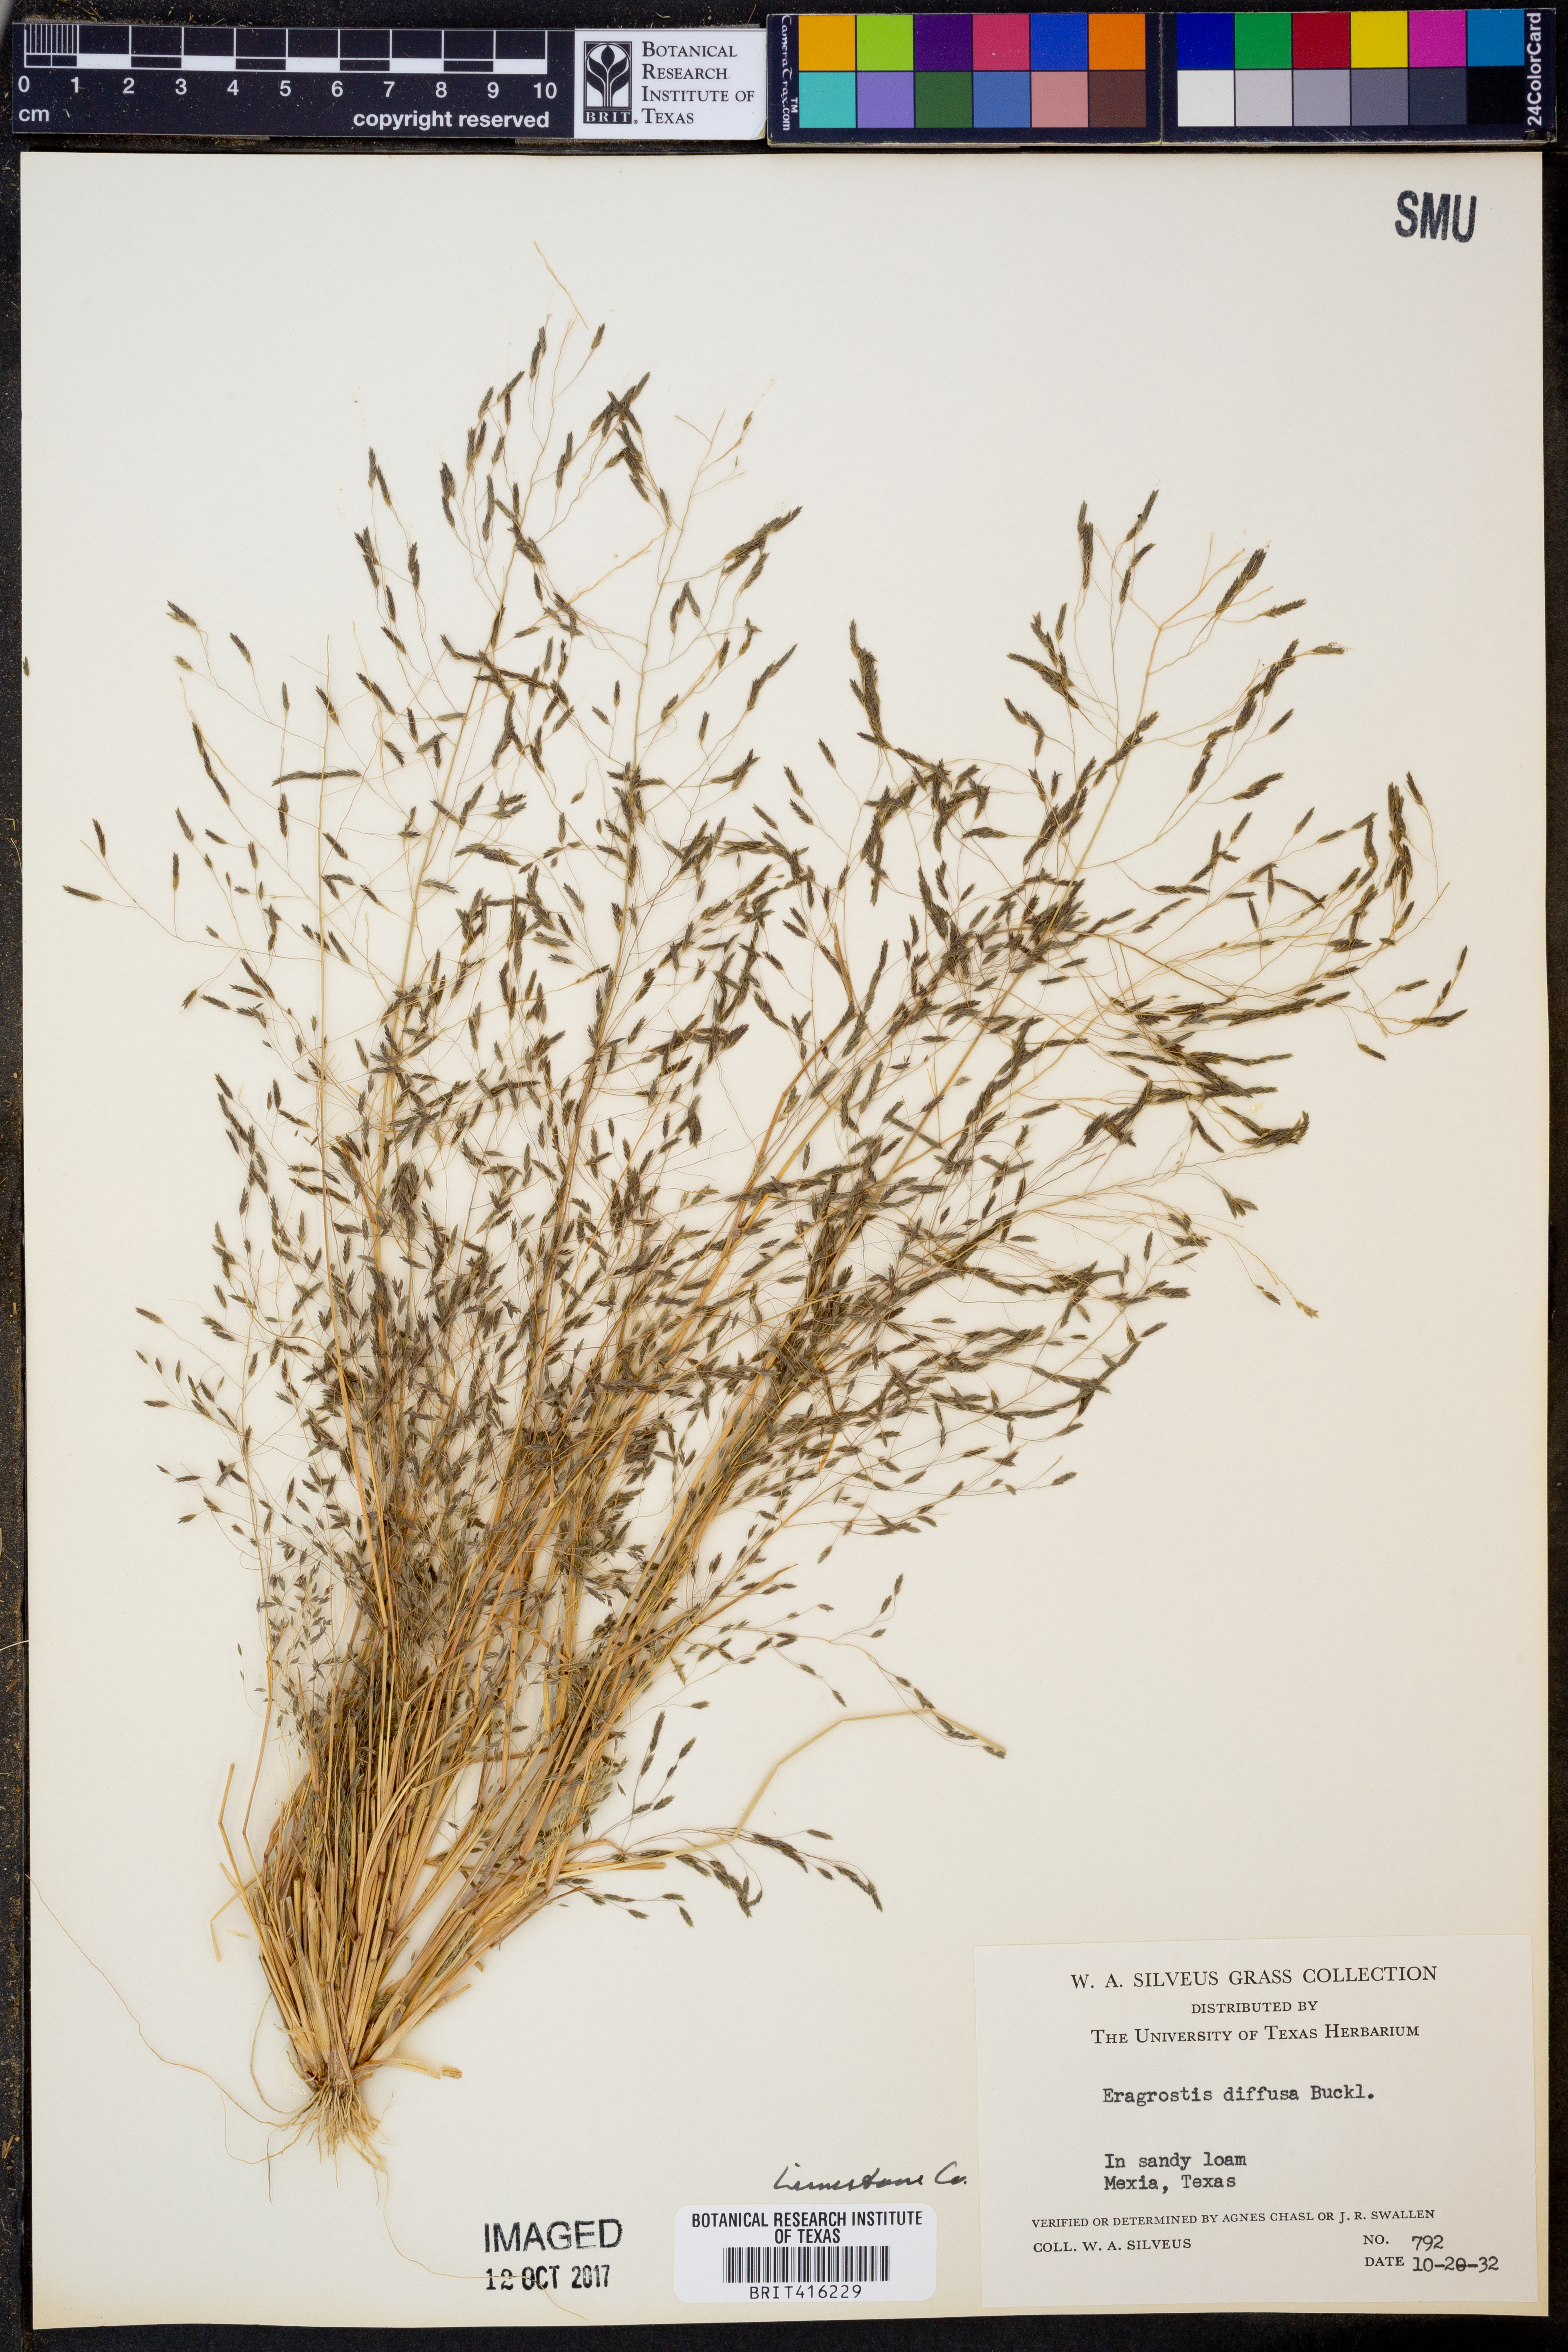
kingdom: Plantae
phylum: Tracheophyta
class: Liliopsida
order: Poales
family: Poaceae
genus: Eragrostis
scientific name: Eragrostis pectinacea
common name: Tufted lovegrass
